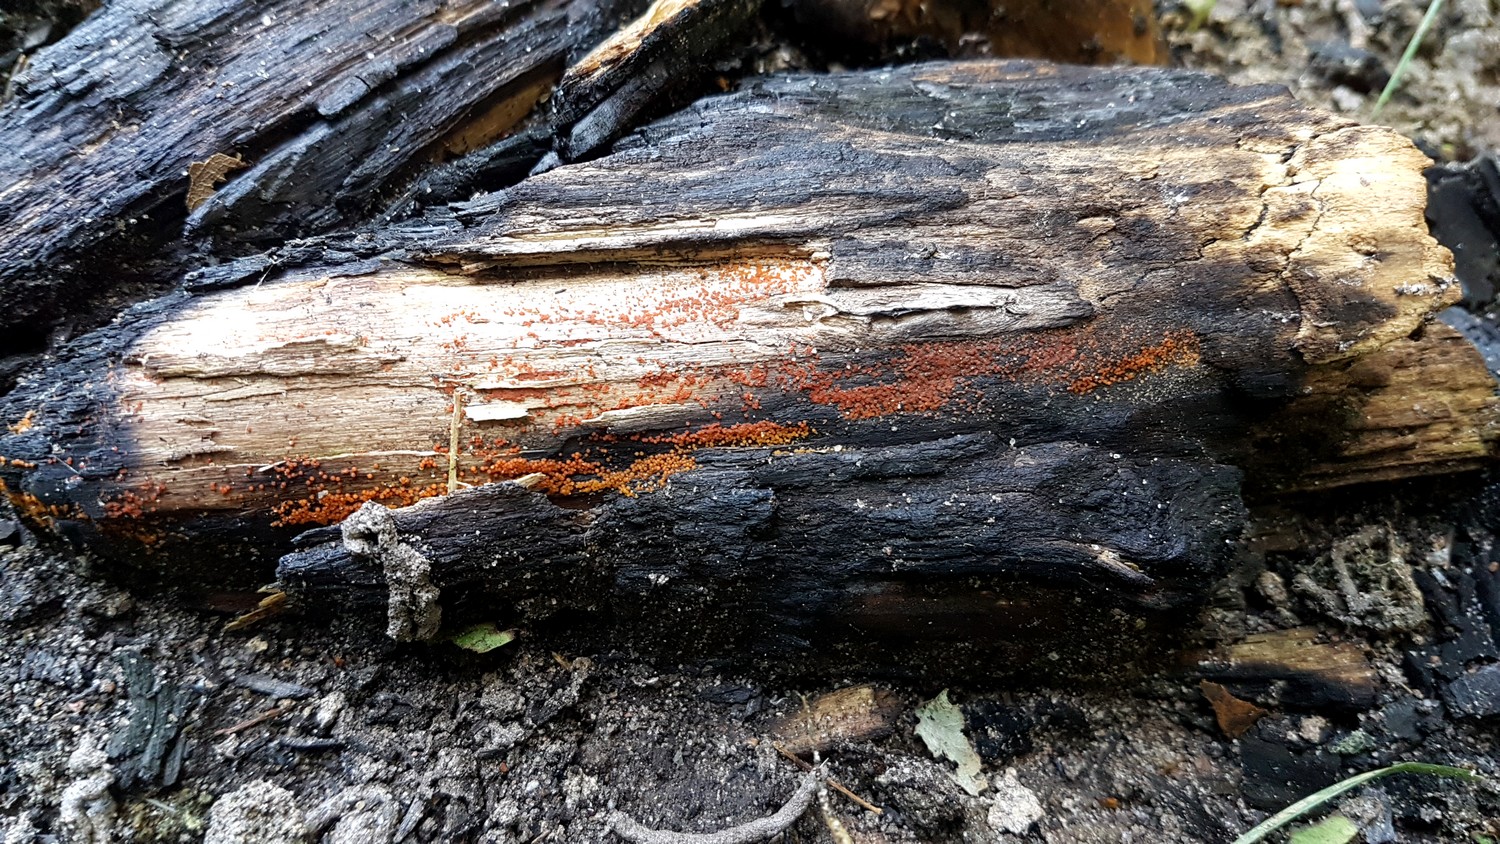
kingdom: Fungi
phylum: Ascomycota
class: Sordariomycetes
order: Hypocreales
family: Nectriaceae
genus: Hydropisphaera
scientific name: Hydropisphaera peziza
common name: skålformet gyldenkerne
